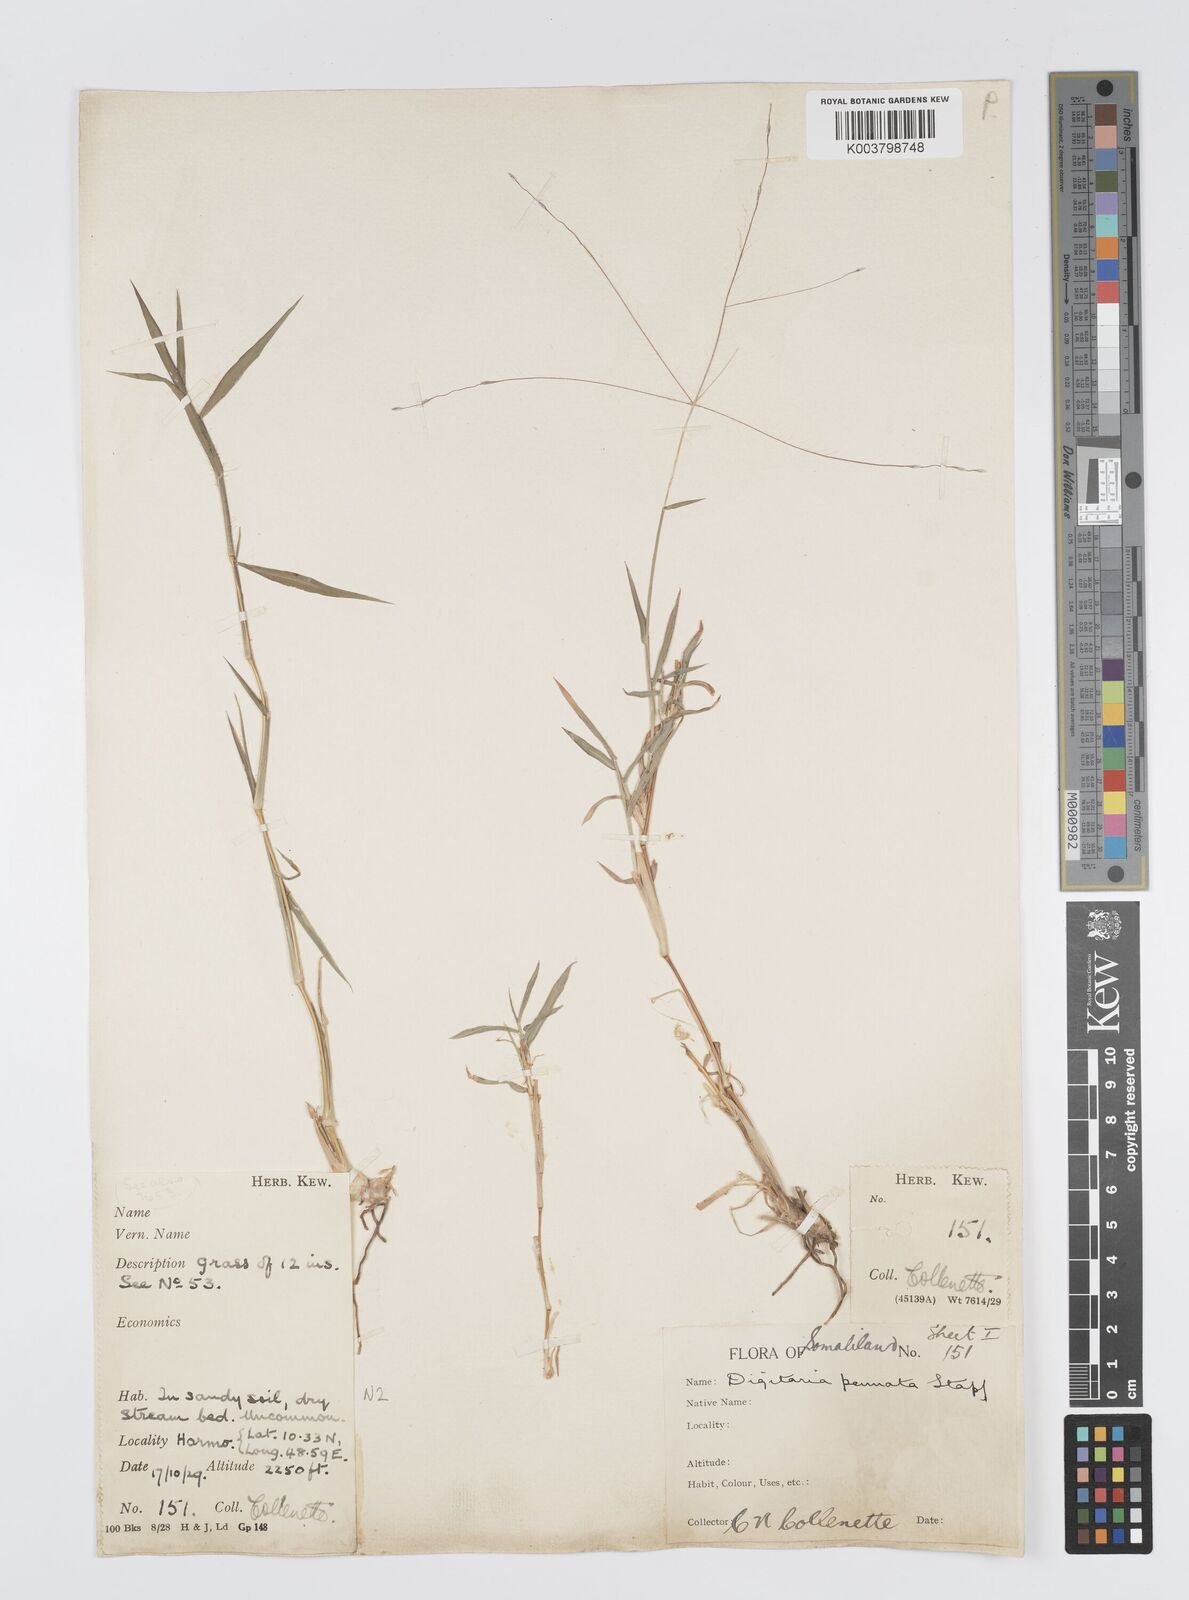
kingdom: Plantae
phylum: Tracheophyta
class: Liliopsida
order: Poales
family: Poaceae
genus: Digitaria
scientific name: Digitaria pennata
